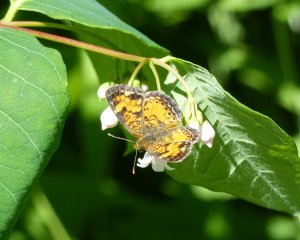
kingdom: Animalia
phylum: Arthropoda
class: Insecta
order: Lepidoptera
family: Nymphalidae
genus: Phyciodes
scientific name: Phyciodes tharos
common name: Northern Crescent
